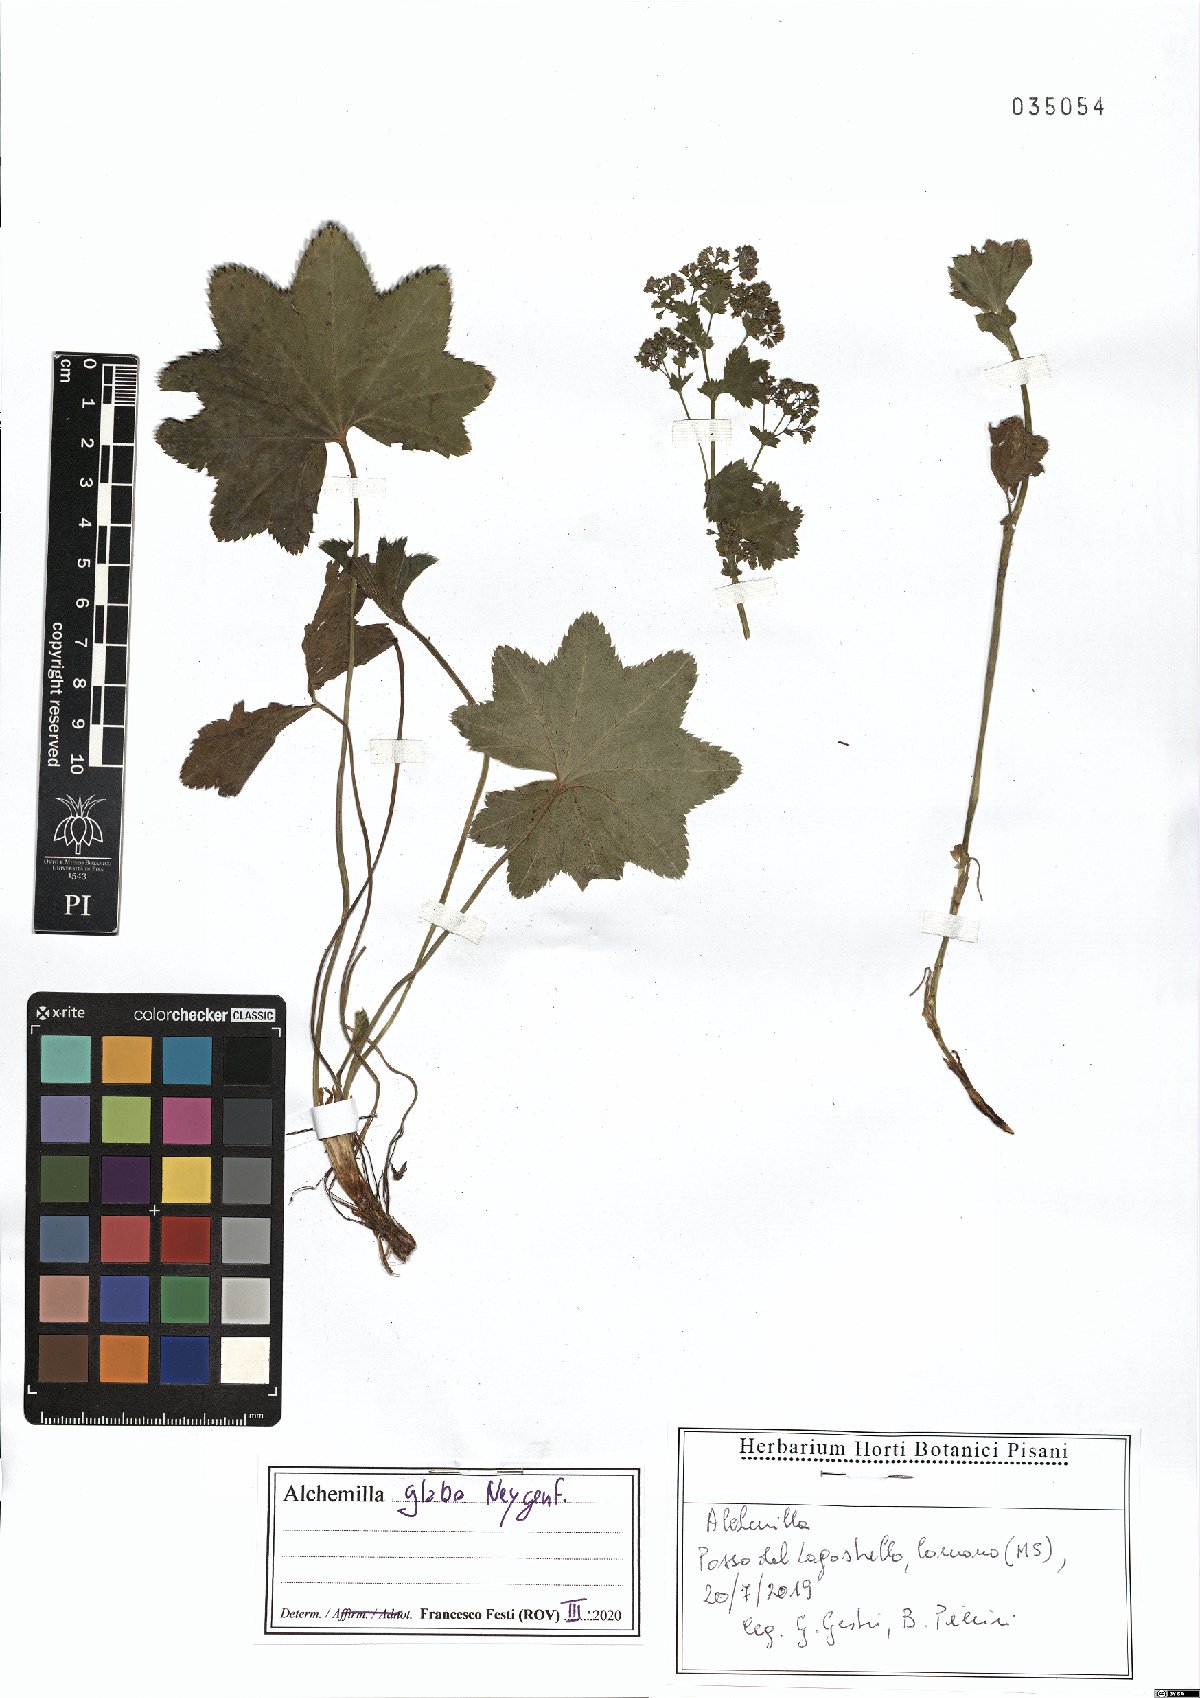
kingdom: Plantae
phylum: Tracheophyta
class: Magnoliopsida
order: Rosales
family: Rosaceae
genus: Alchemilla
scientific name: Alchemilla glabra
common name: Smooth lady's-mantle
